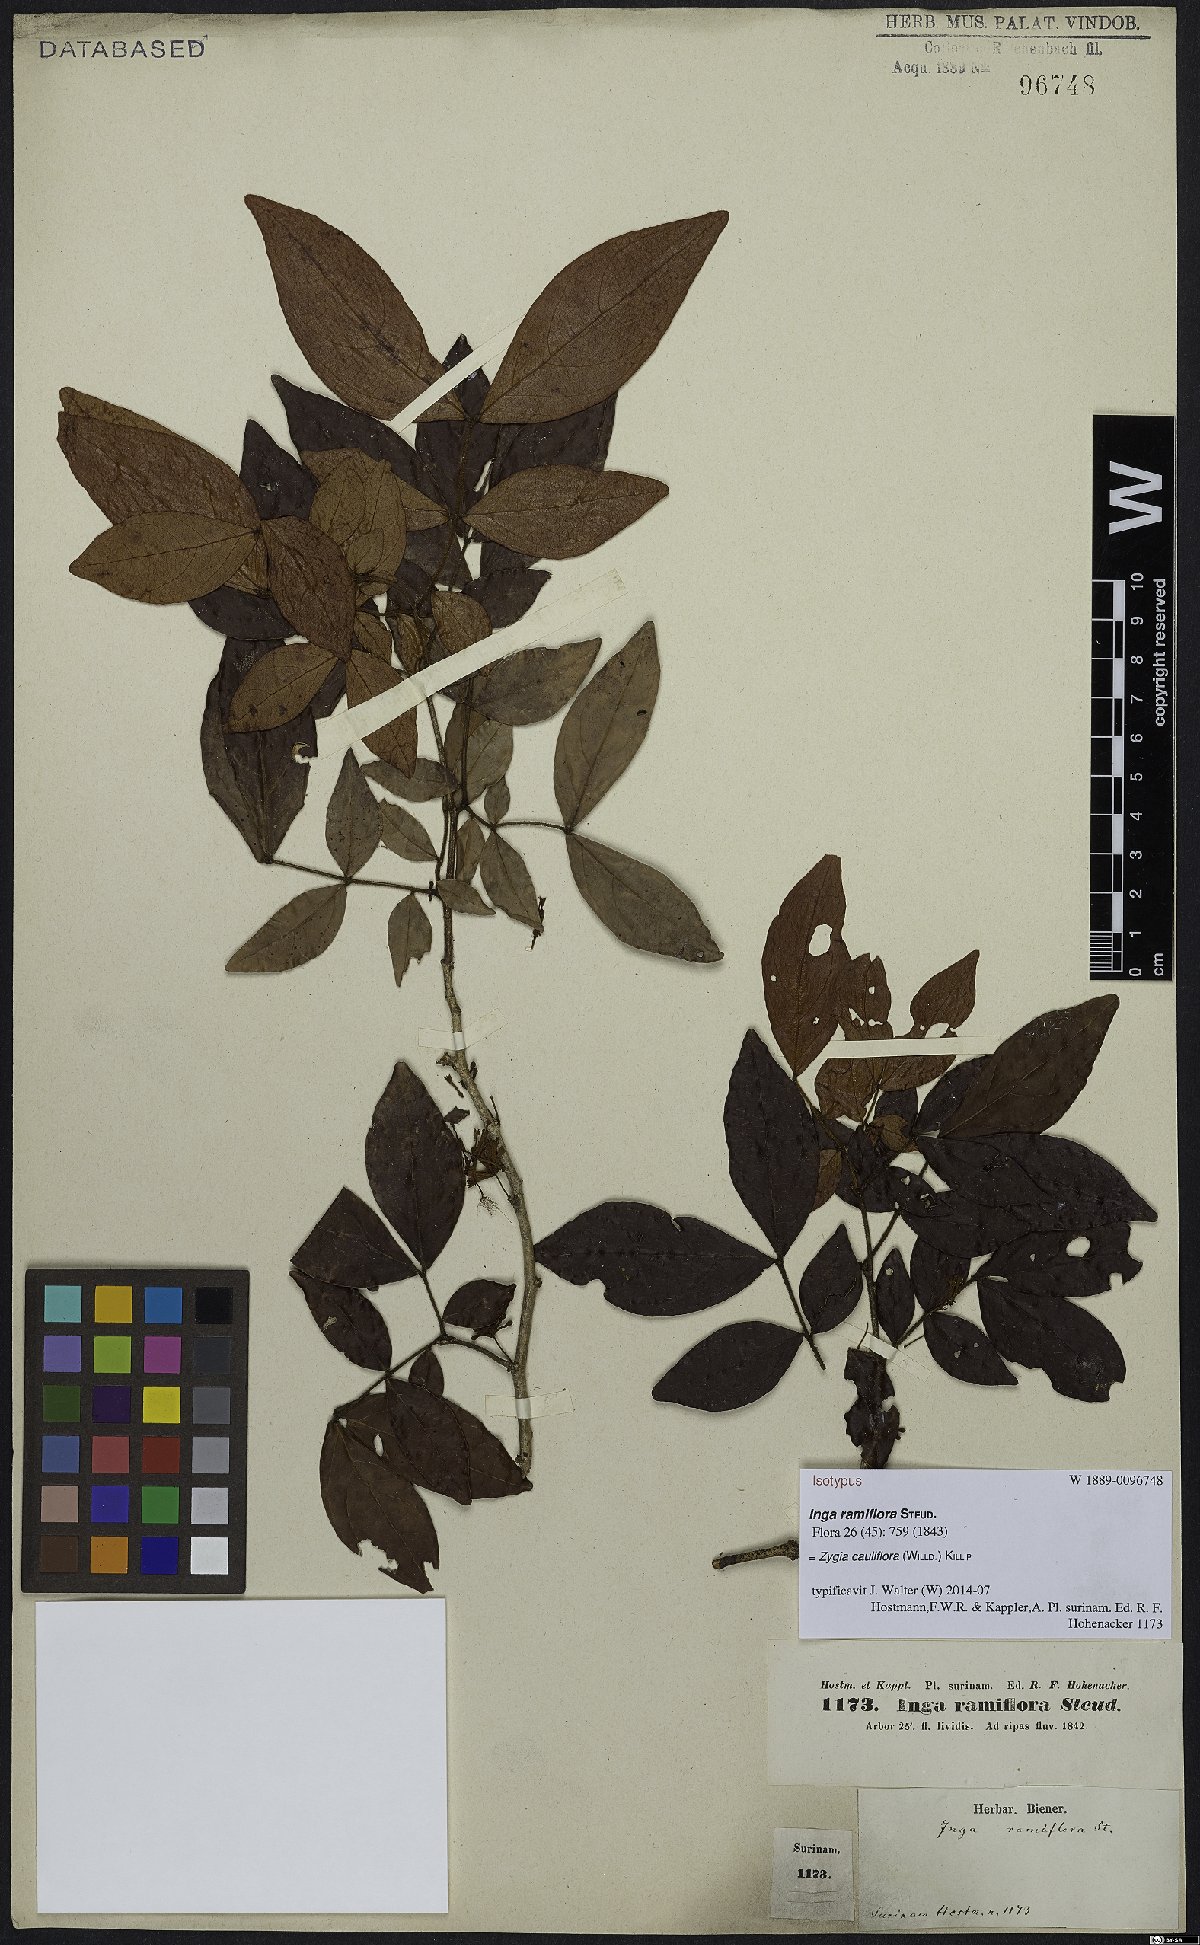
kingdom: Plantae
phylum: Tracheophyta
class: Magnoliopsida
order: Fabales
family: Fabaceae
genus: Zygia
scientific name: Zygia cauliflora
